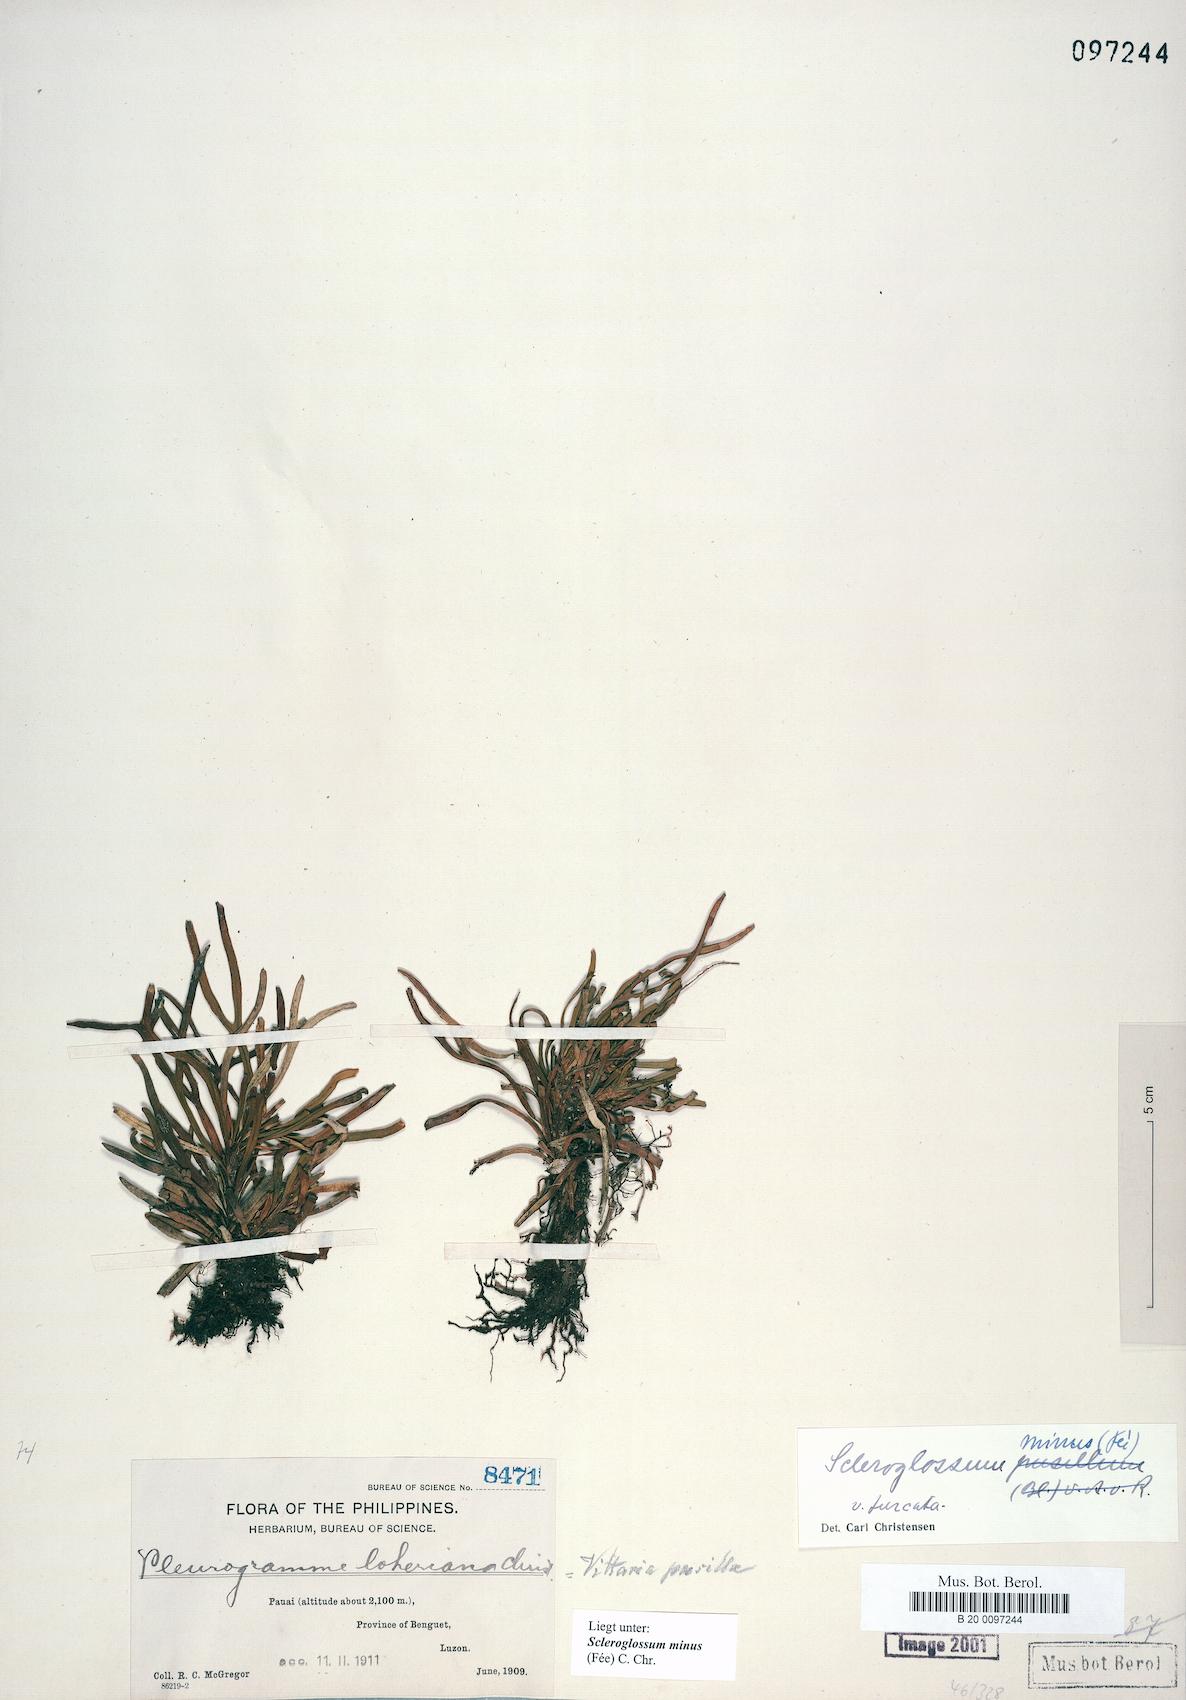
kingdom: Plantae
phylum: Tracheophyta
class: Polypodiopsida
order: Polypodiales
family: Polypodiaceae
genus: Scleroglossum
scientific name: Scleroglossum pusillum
